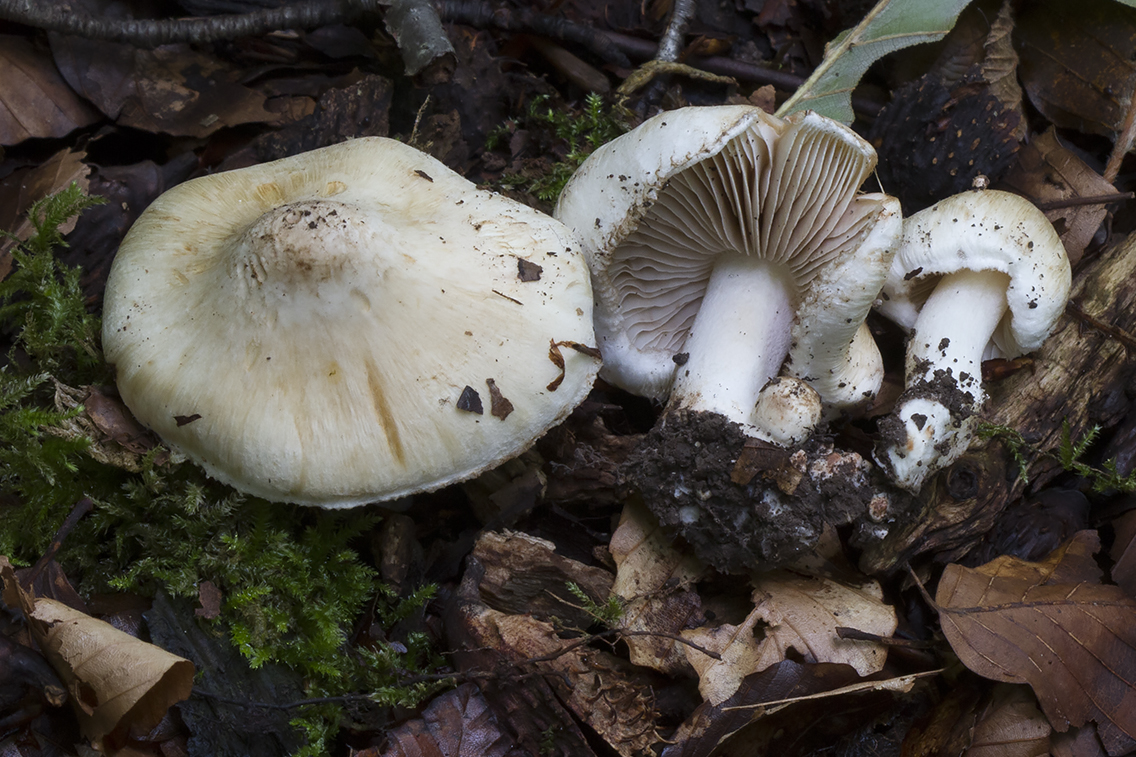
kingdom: Fungi
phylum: Basidiomycota
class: Agaricomycetes
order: Agaricales
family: Inocybaceae
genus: Inocybe
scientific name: Inocybe fraudans
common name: pæreduftende trævlhat
